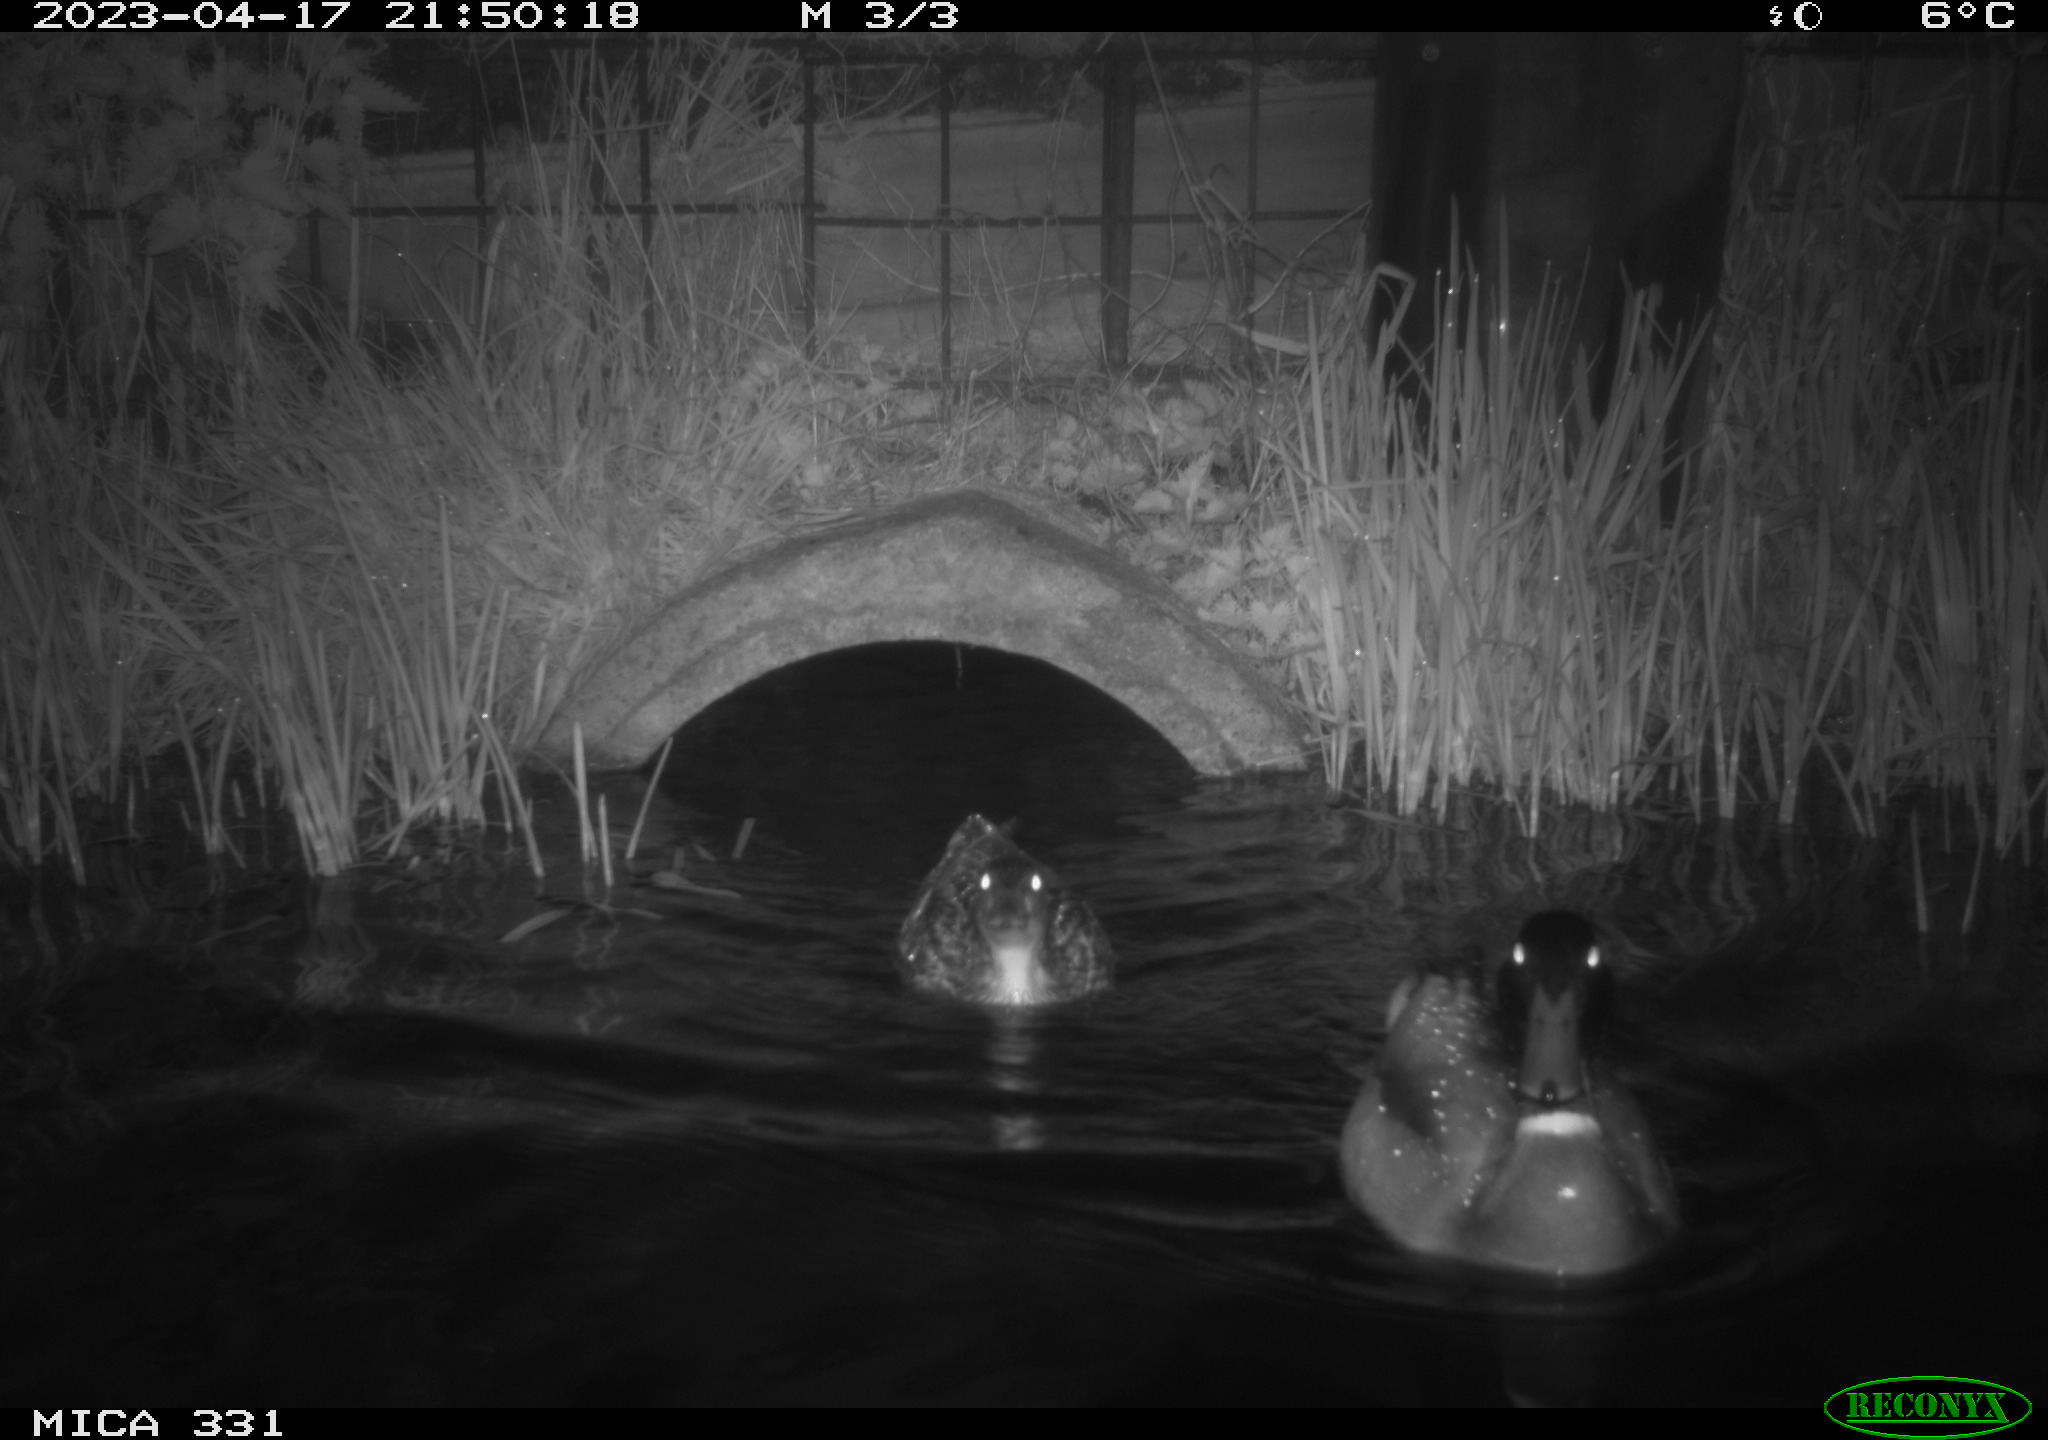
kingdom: Animalia
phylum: Chordata
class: Aves
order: Anseriformes
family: Anatidae
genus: Anas
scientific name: Anas platyrhynchos
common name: Mallard
